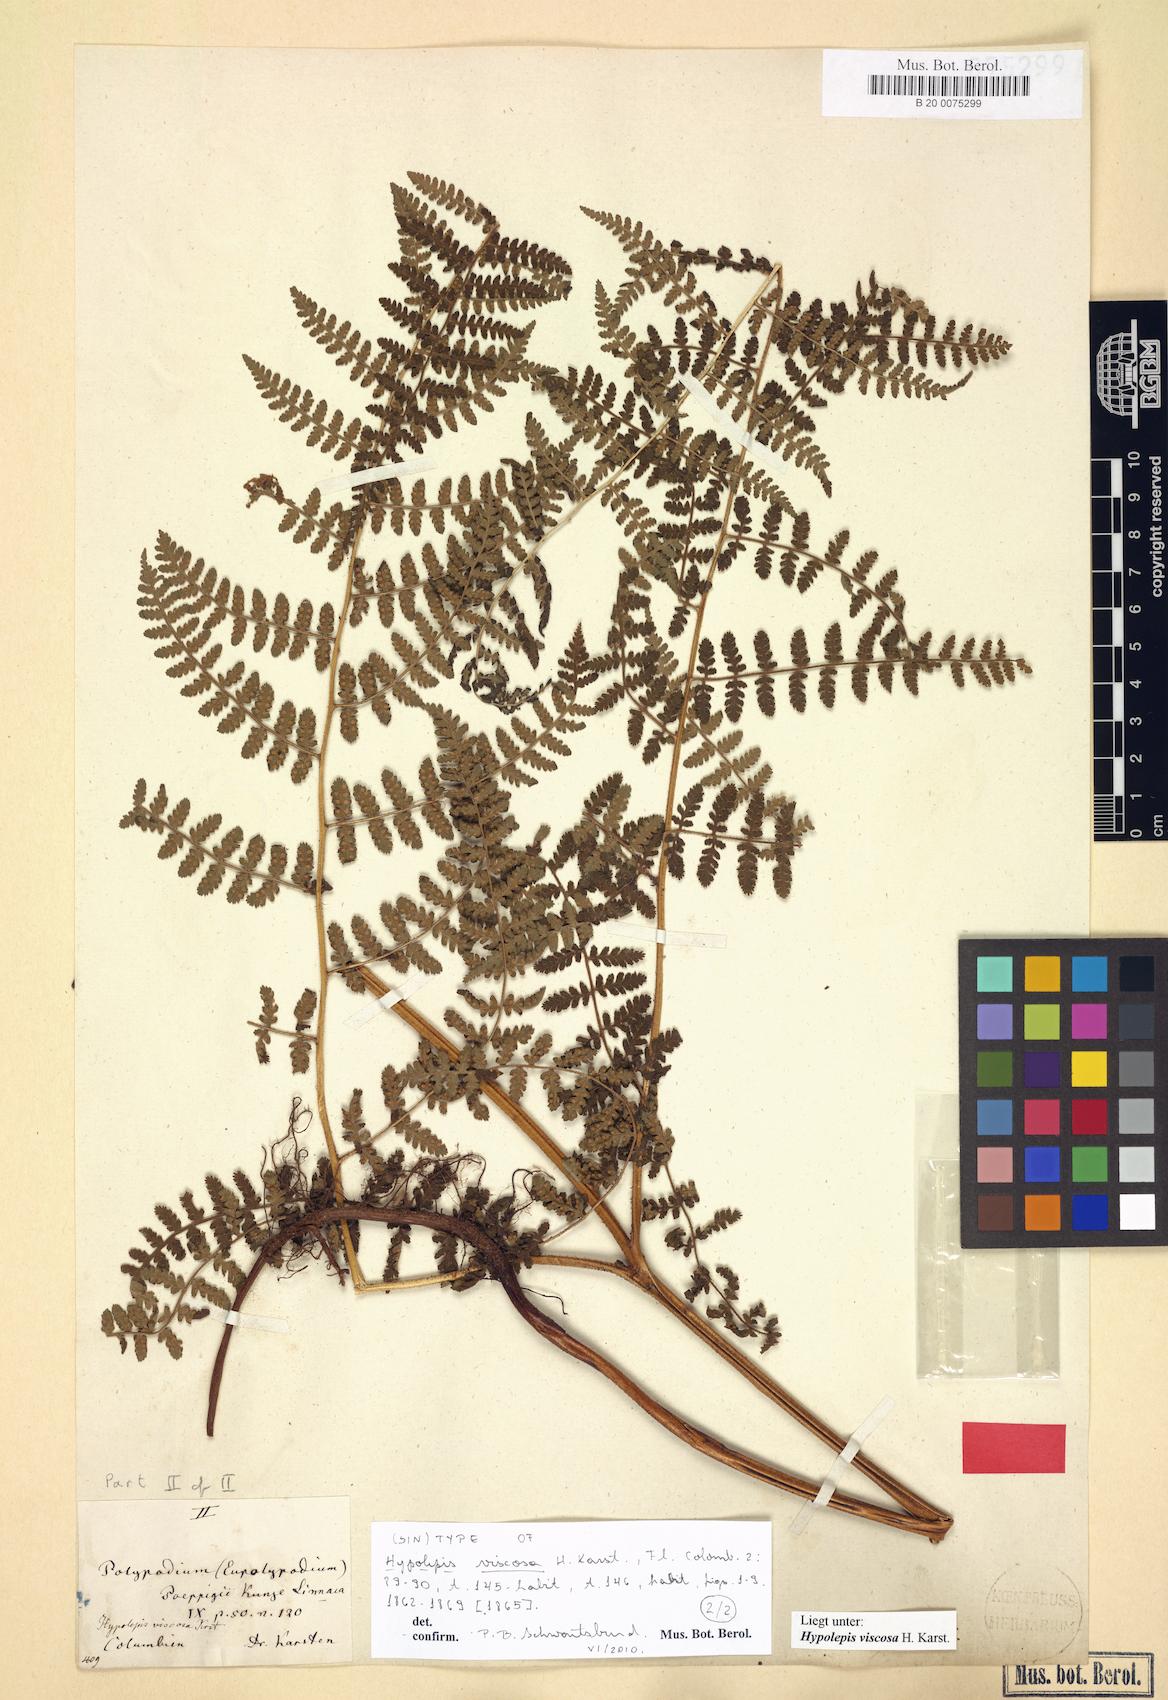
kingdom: Plantae
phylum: Tracheophyta
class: Polypodiopsida
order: Polypodiales
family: Dennstaedtiaceae
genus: Hypolepis
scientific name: Hypolepis viscosa
